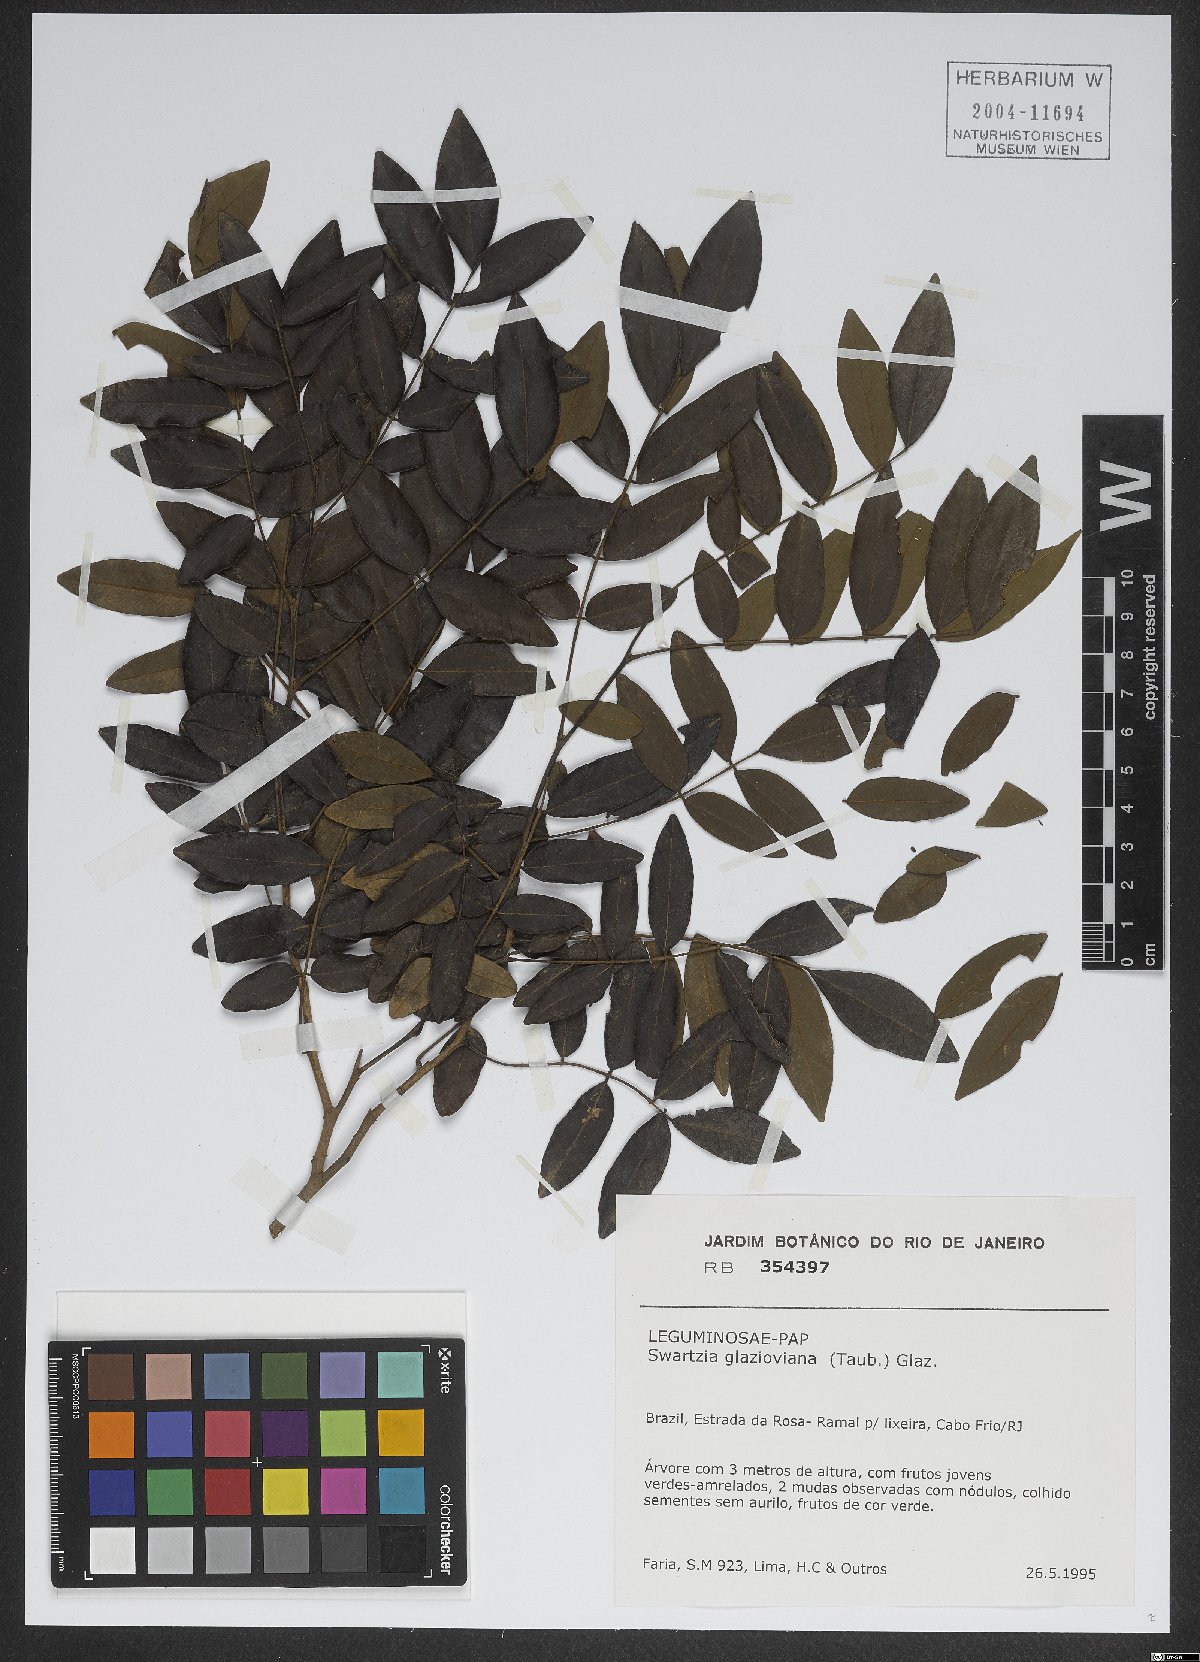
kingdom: Plantae
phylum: Tracheophyta
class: Magnoliopsida
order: Fabales
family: Fabaceae
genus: Swartzia
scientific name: Swartzia glazioviana
